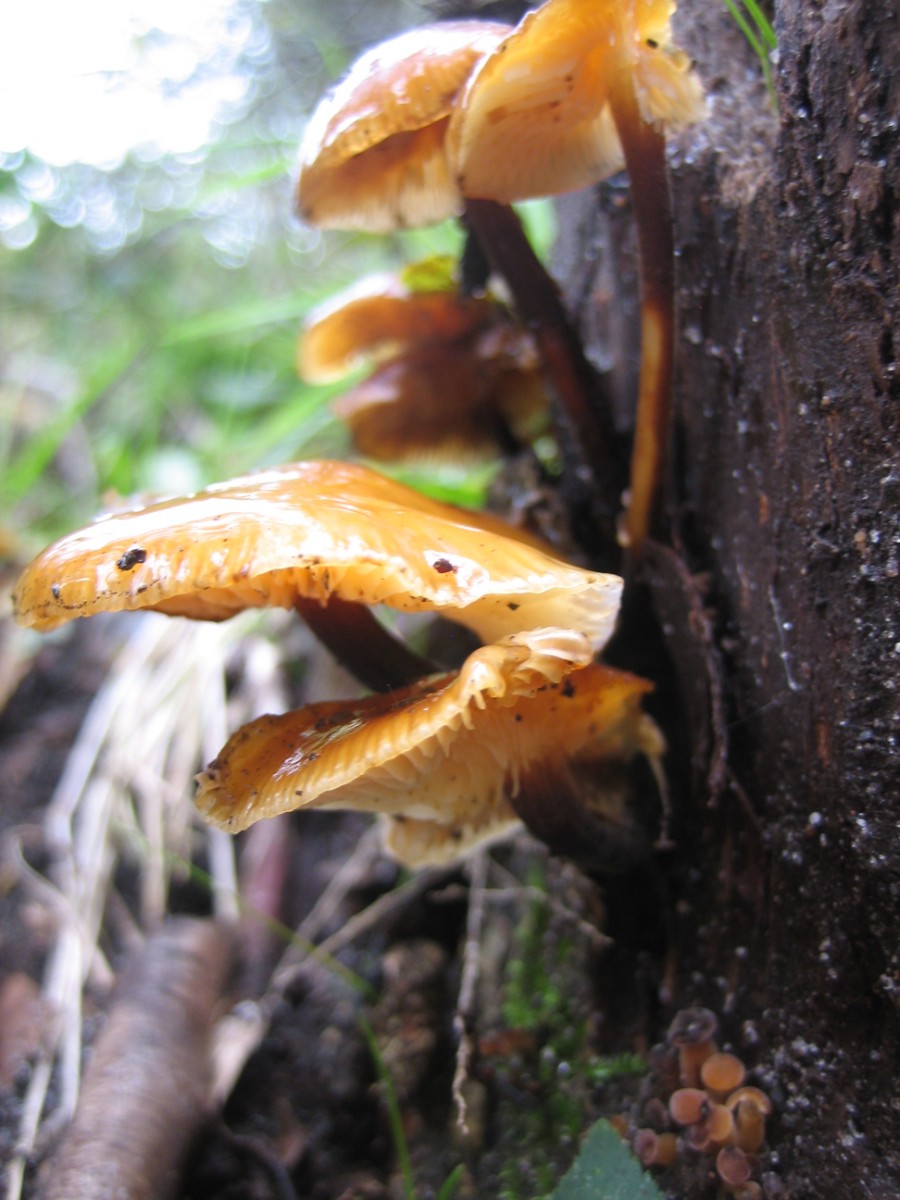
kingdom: Fungi
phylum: Basidiomycota
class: Agaricomycetes
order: Agaricales
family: Physalacriaceae
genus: Flammulina
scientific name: Flammulina velutipes
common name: gul fløjlsfod
